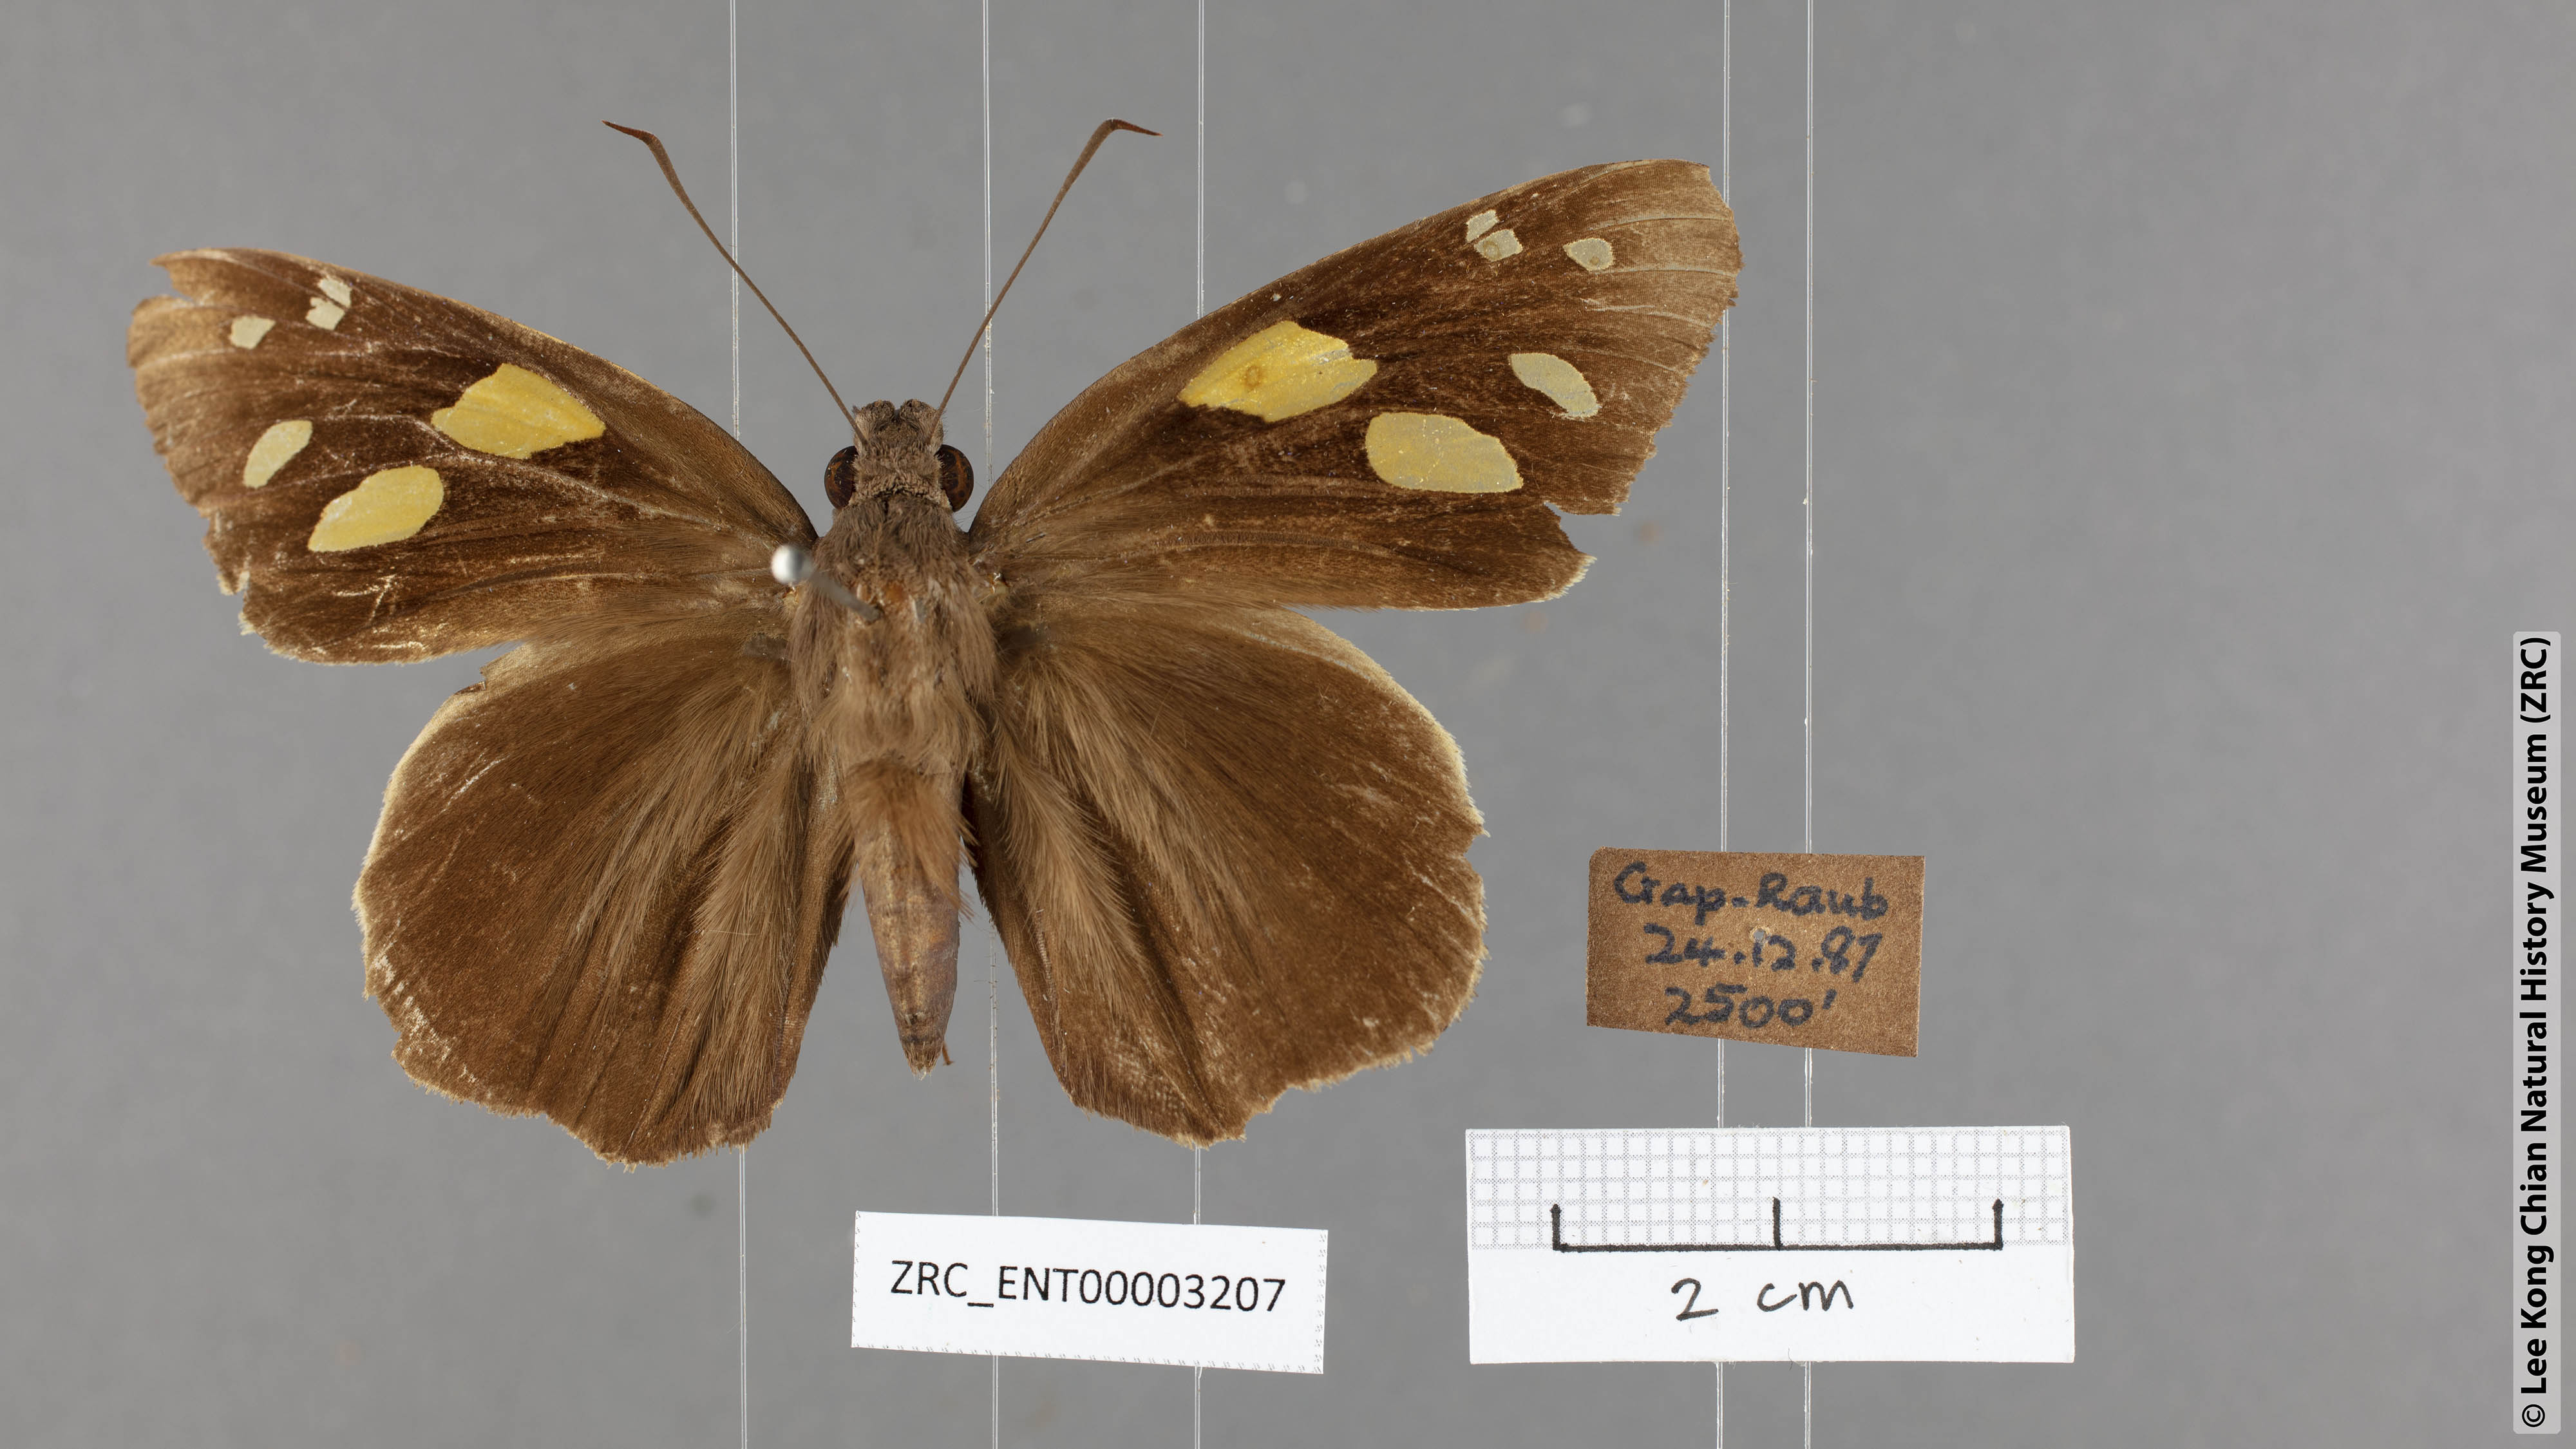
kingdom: Animalia
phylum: Arthropoda
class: Insecta
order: Lepidoptera
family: Hesperiidae
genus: Gangara
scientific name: Gangara thyrsis
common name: Giant redeye
